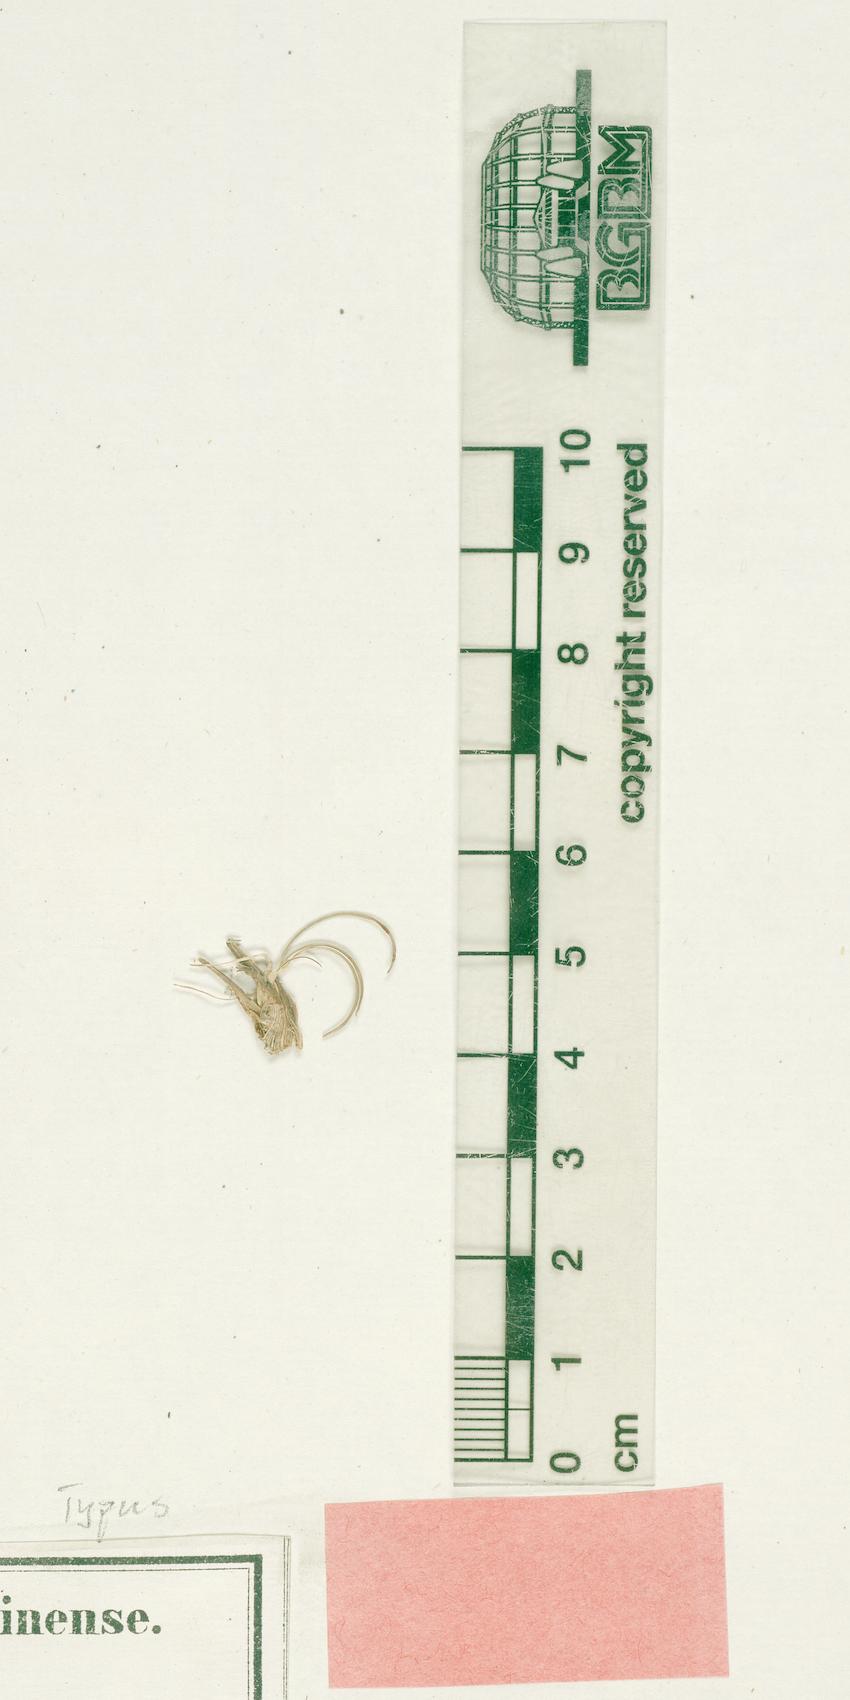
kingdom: Plantae
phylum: Tracheophyta
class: Liliopsida
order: Asparagales
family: Iridaceae
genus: Romulea
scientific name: Romulea cyrenaica
